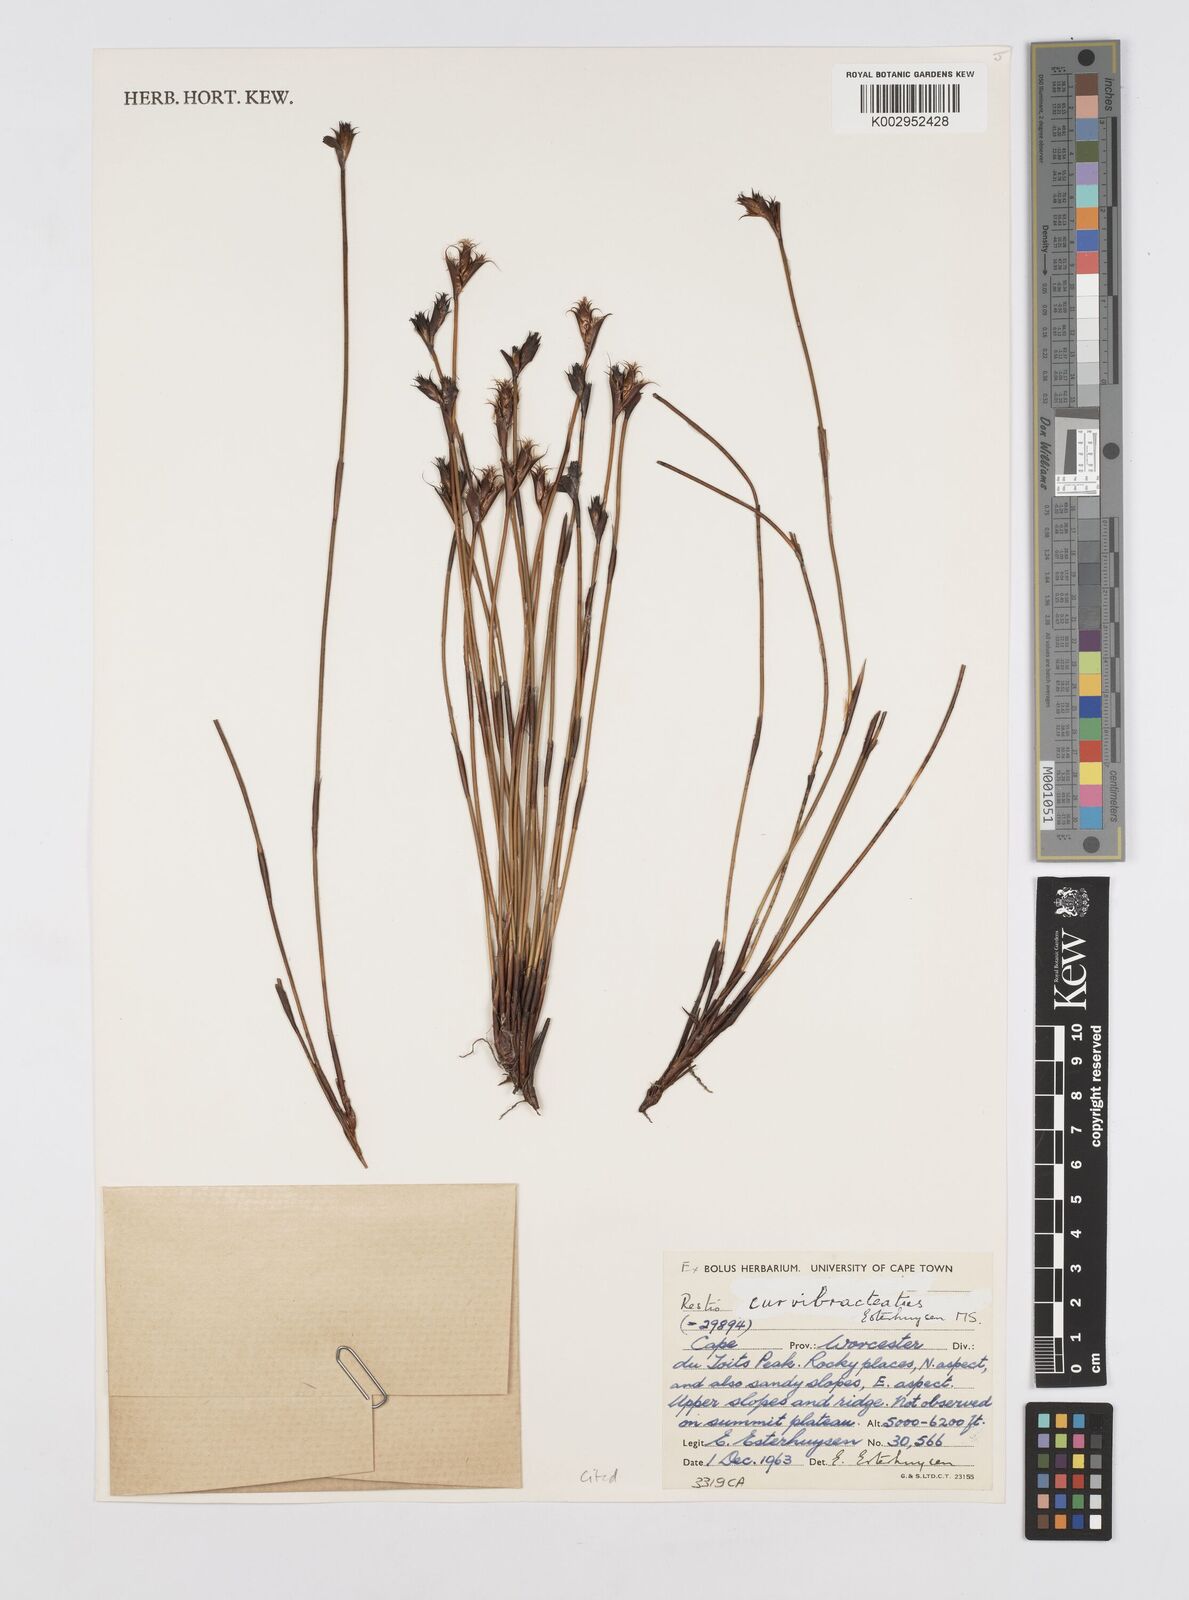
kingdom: Plantae
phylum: Tracheophyta
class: Liliopsida
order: Poales
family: Restionaceae
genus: Restio
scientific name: Restio curvibracteatus
